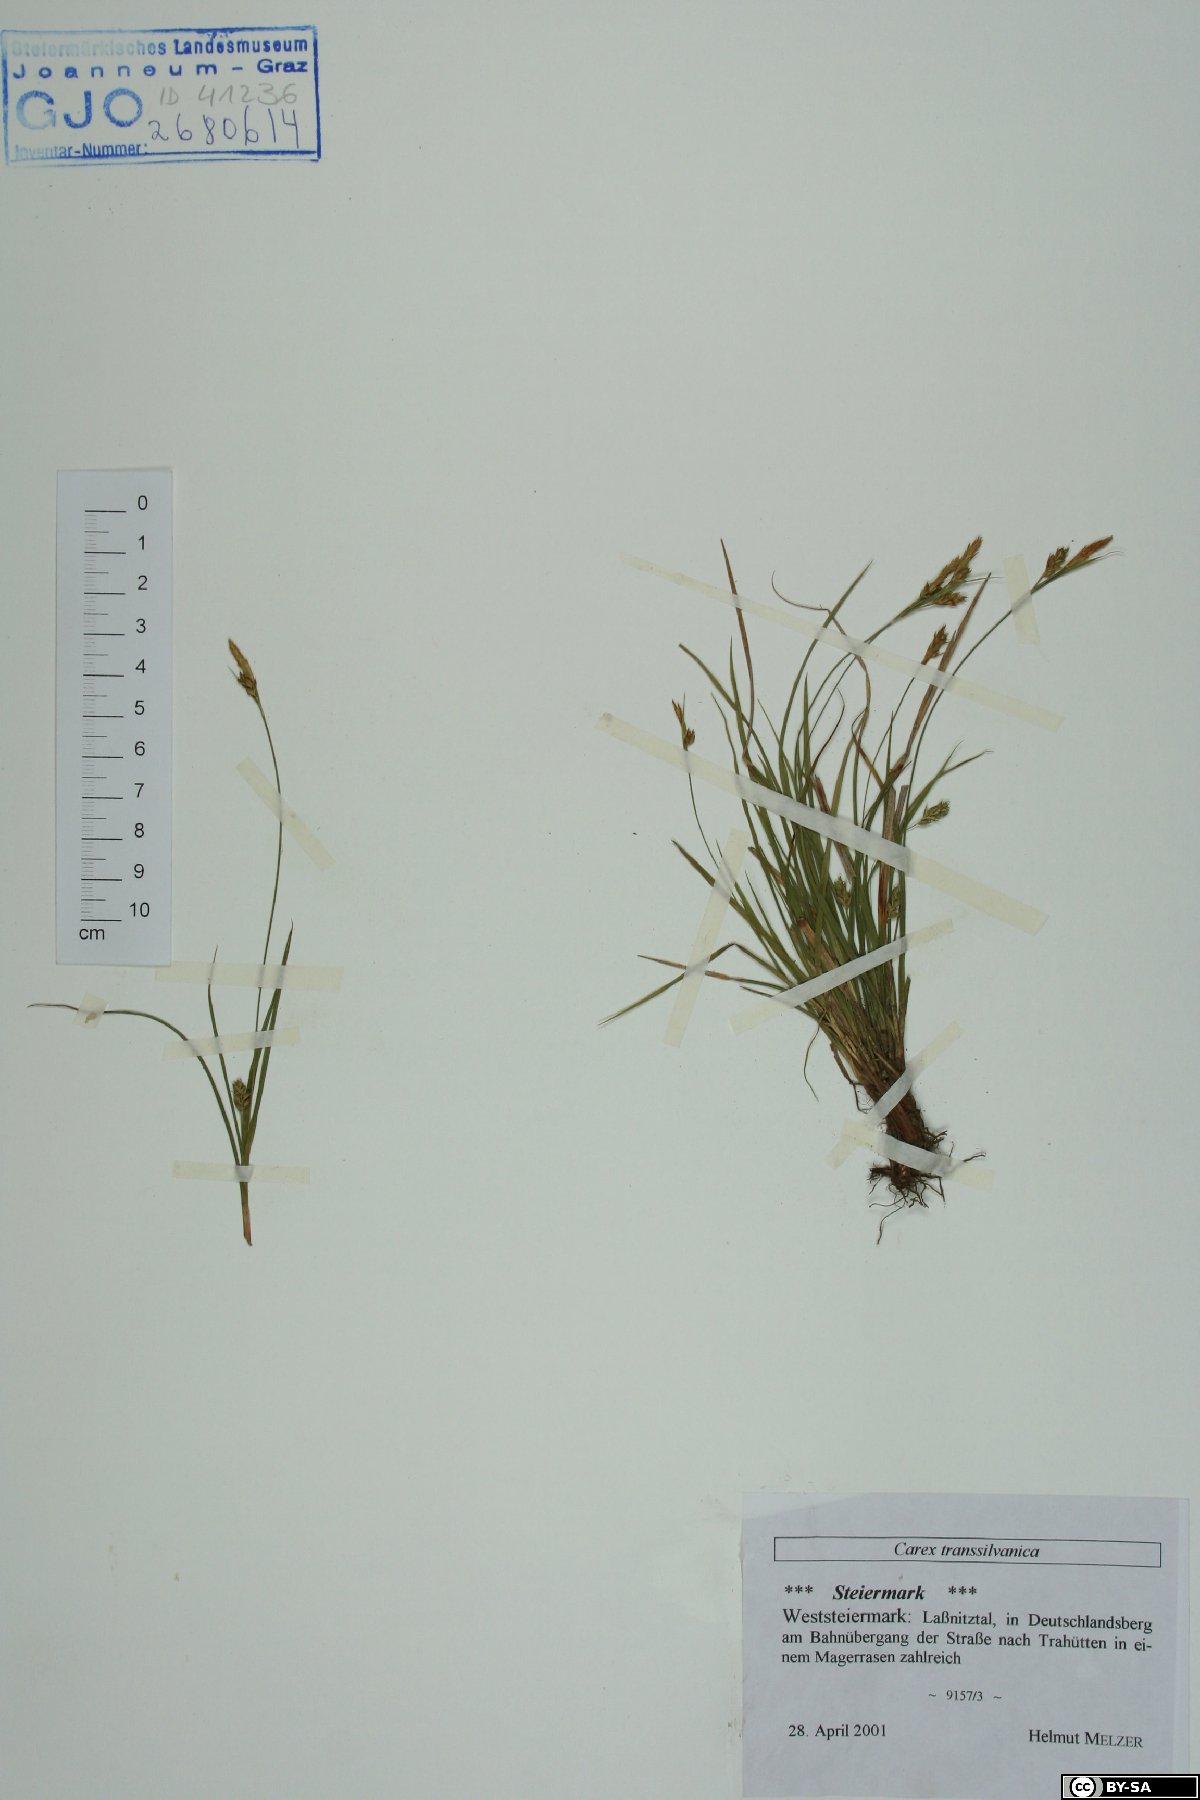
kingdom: Plantae
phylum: Tracheophyta
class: Liliopsida
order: Poales
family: Cyperaceae
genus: Carex
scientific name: Carex depressa
